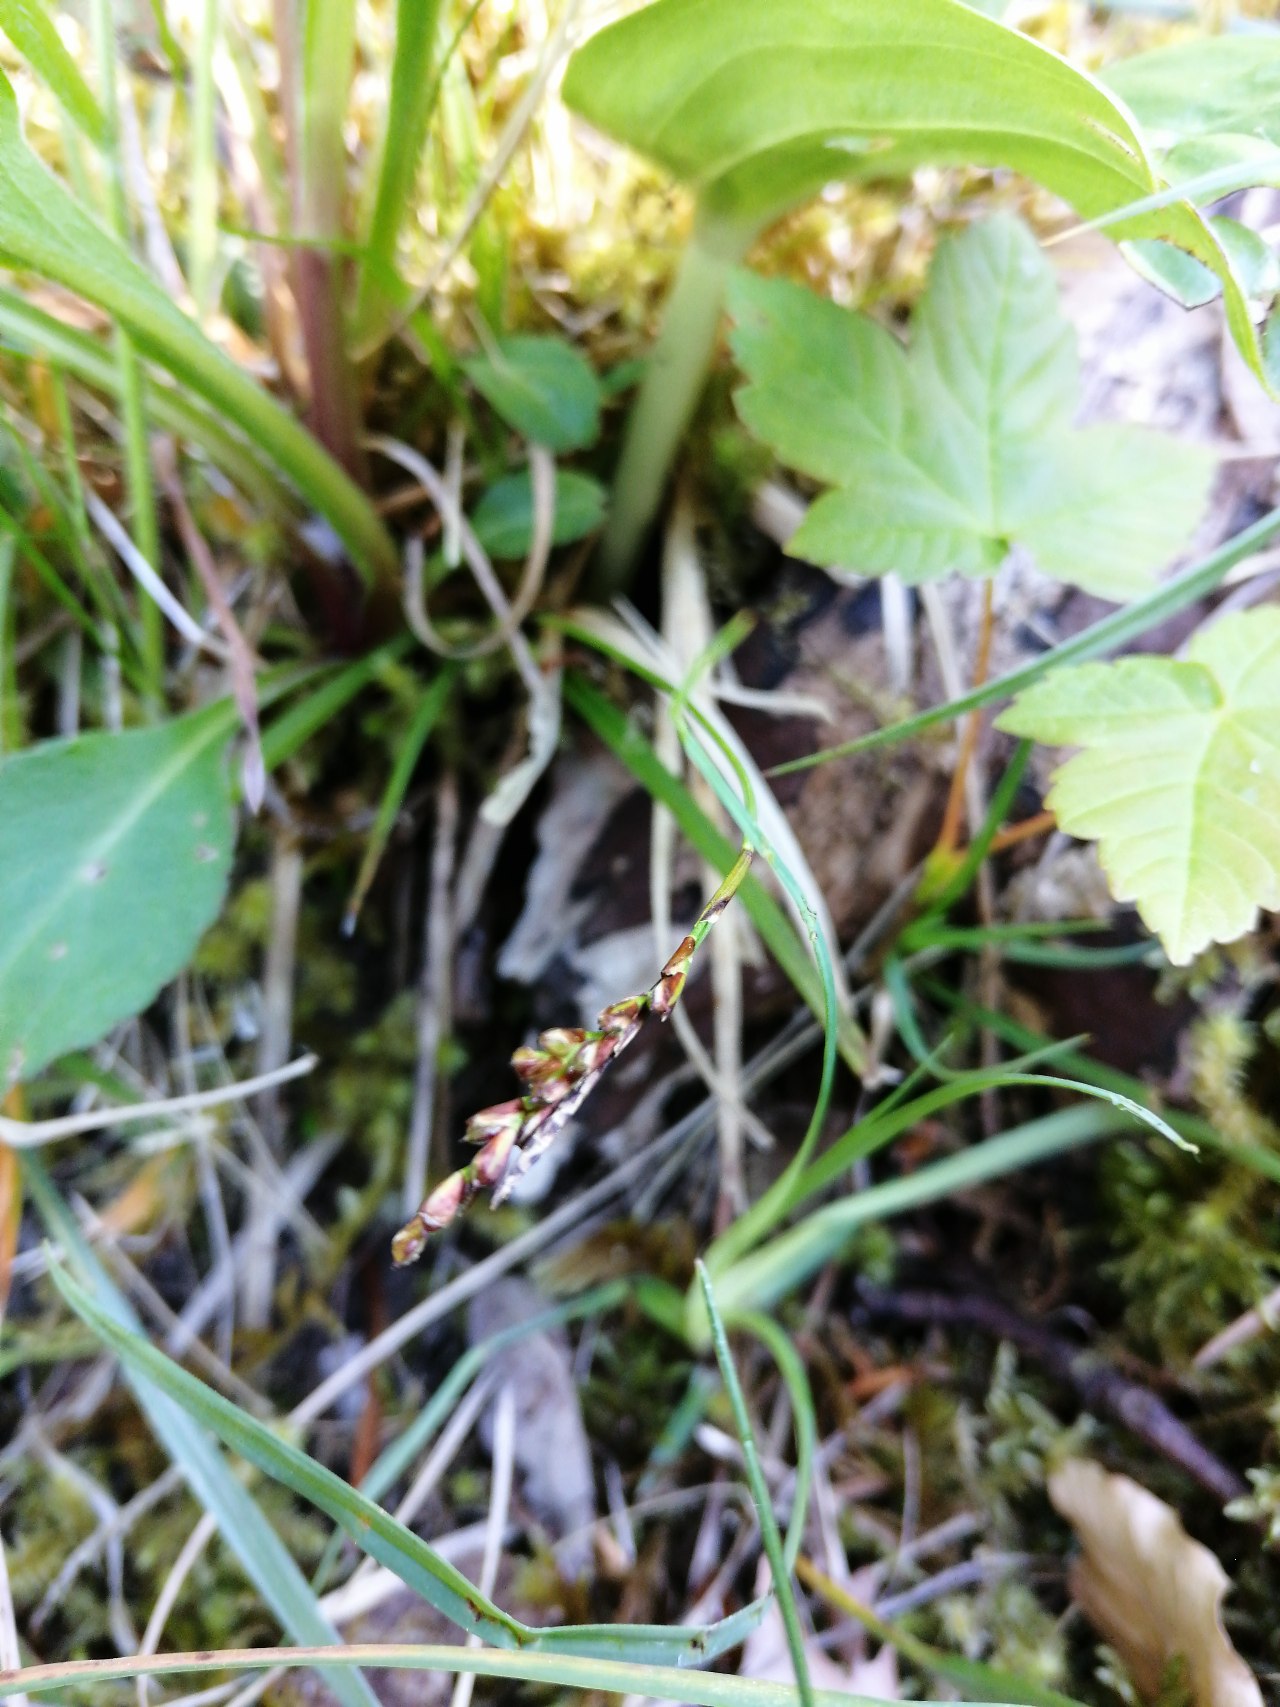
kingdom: Plantae
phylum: Tracheophyta
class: Liliopsida
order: Poales
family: Cyperaceae
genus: Carex
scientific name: Carex digitata
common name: Finger-star
